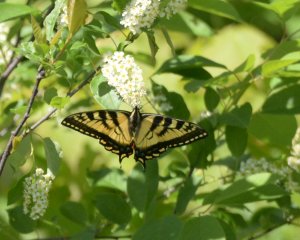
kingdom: Animalia
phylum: Arthropoda
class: Insecta
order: Lepidoptera
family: Papilionidae
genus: Pterourus
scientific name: Pterourus canadensis
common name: Canadian Tiger Swallowtail
